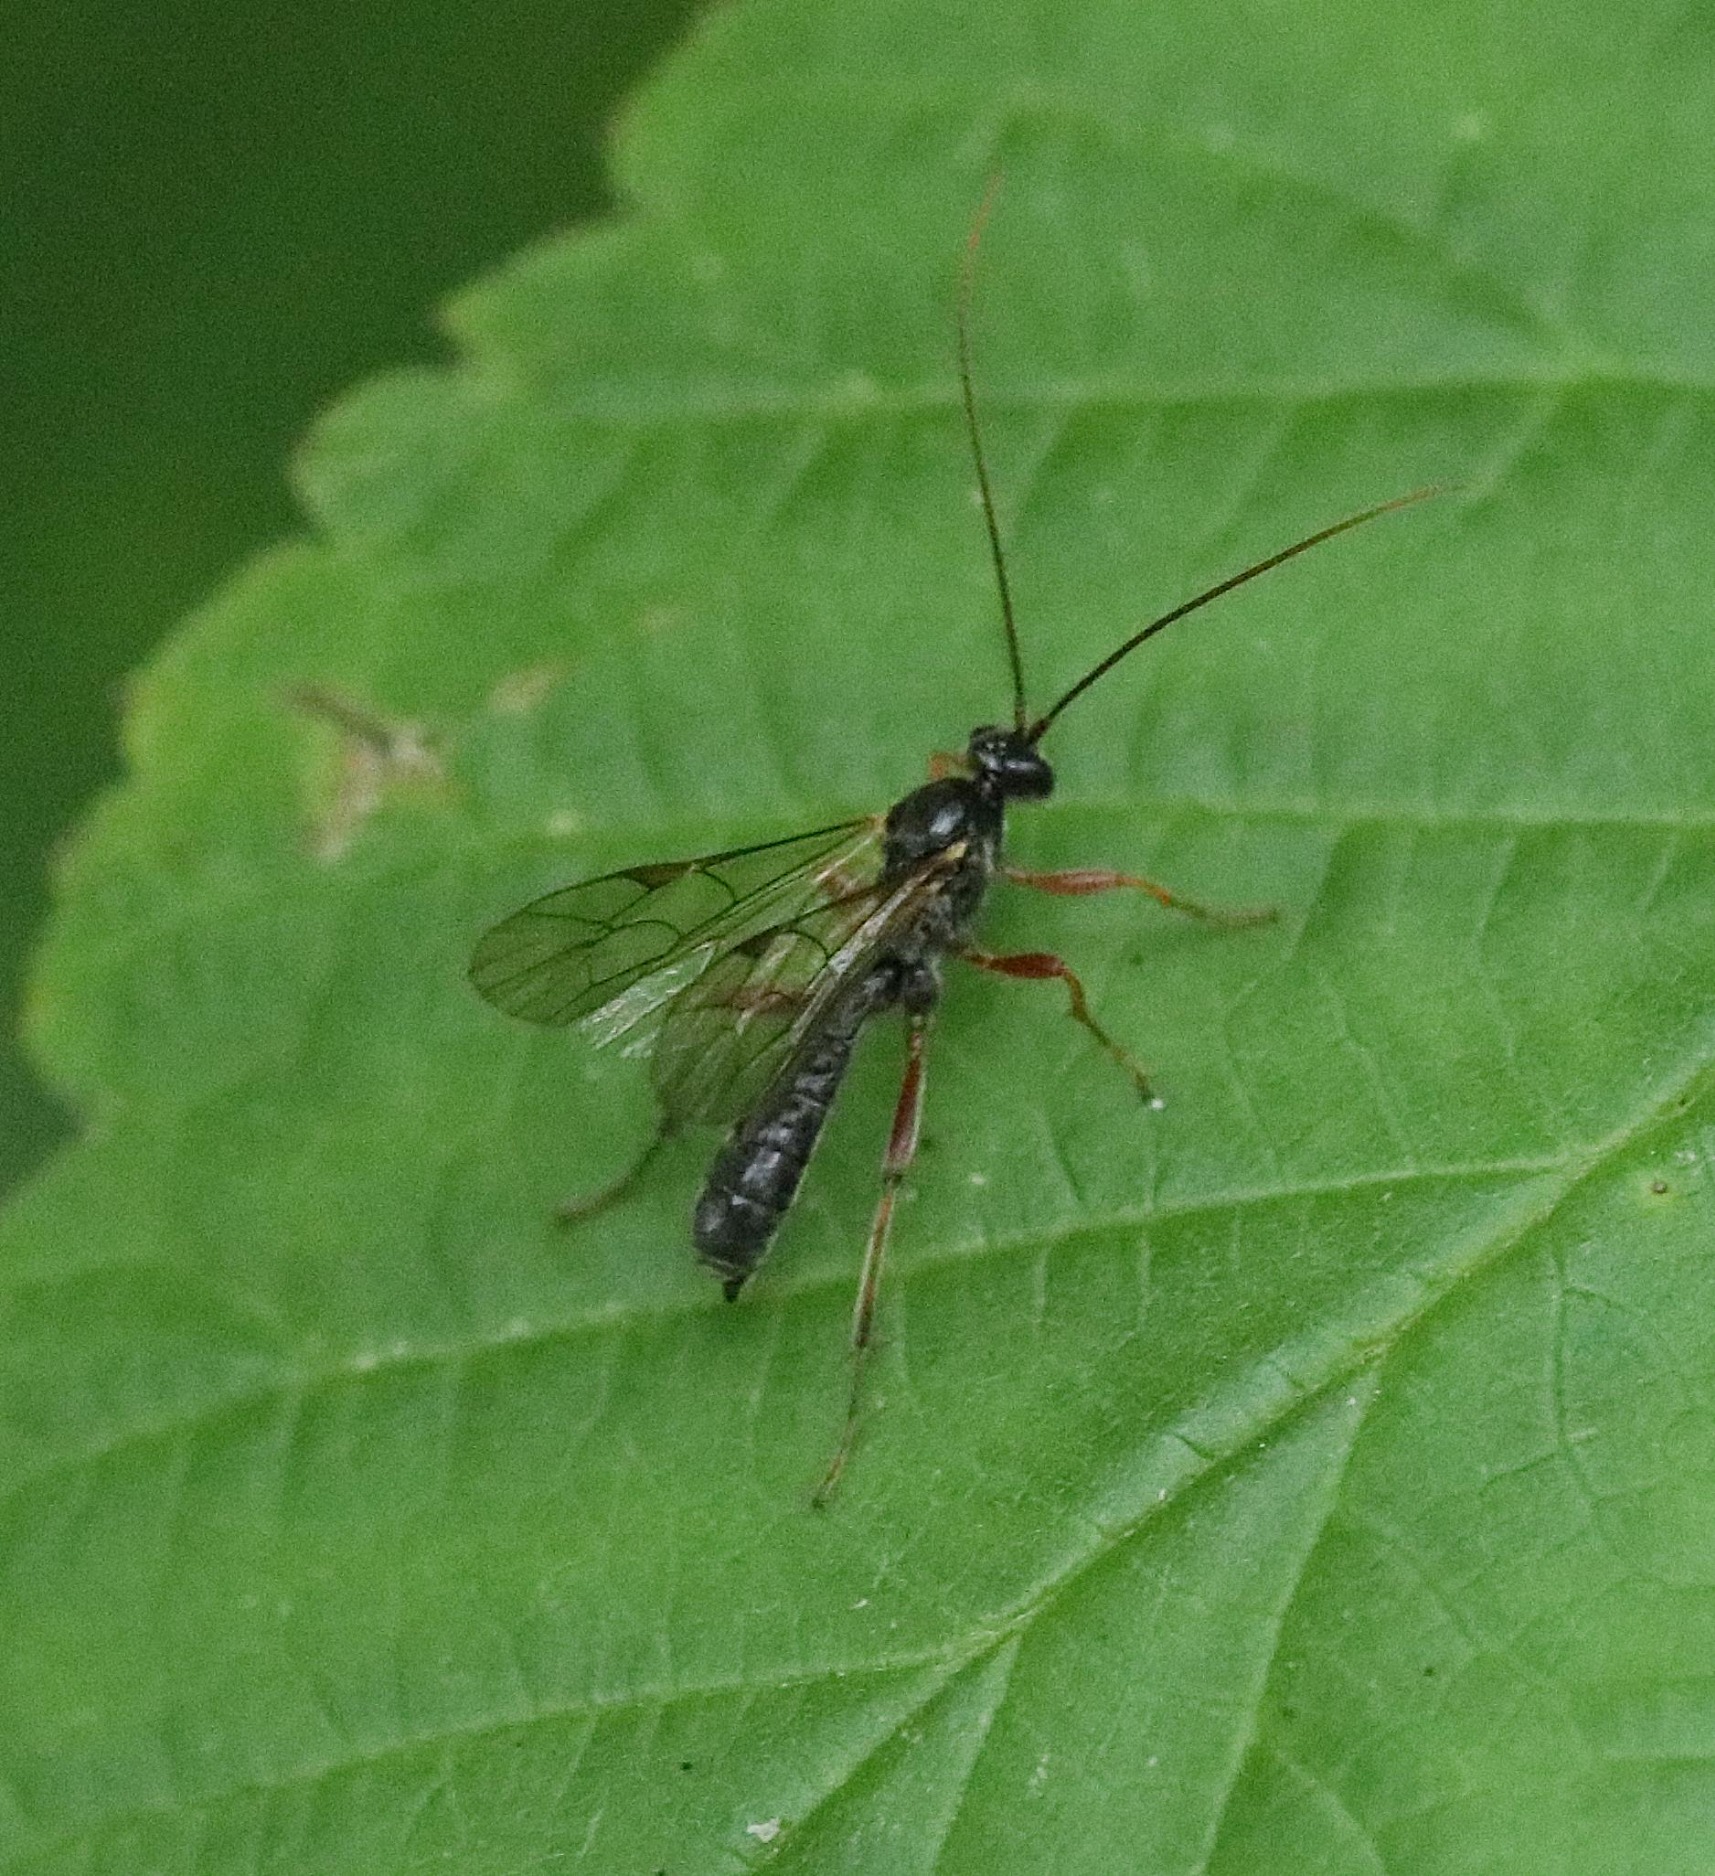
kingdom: Animalia
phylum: Arthropoda
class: Insecta
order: Hymenoptera
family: Ichneumonidae
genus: Dyspetes
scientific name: Dyspetes luteomarginatus
